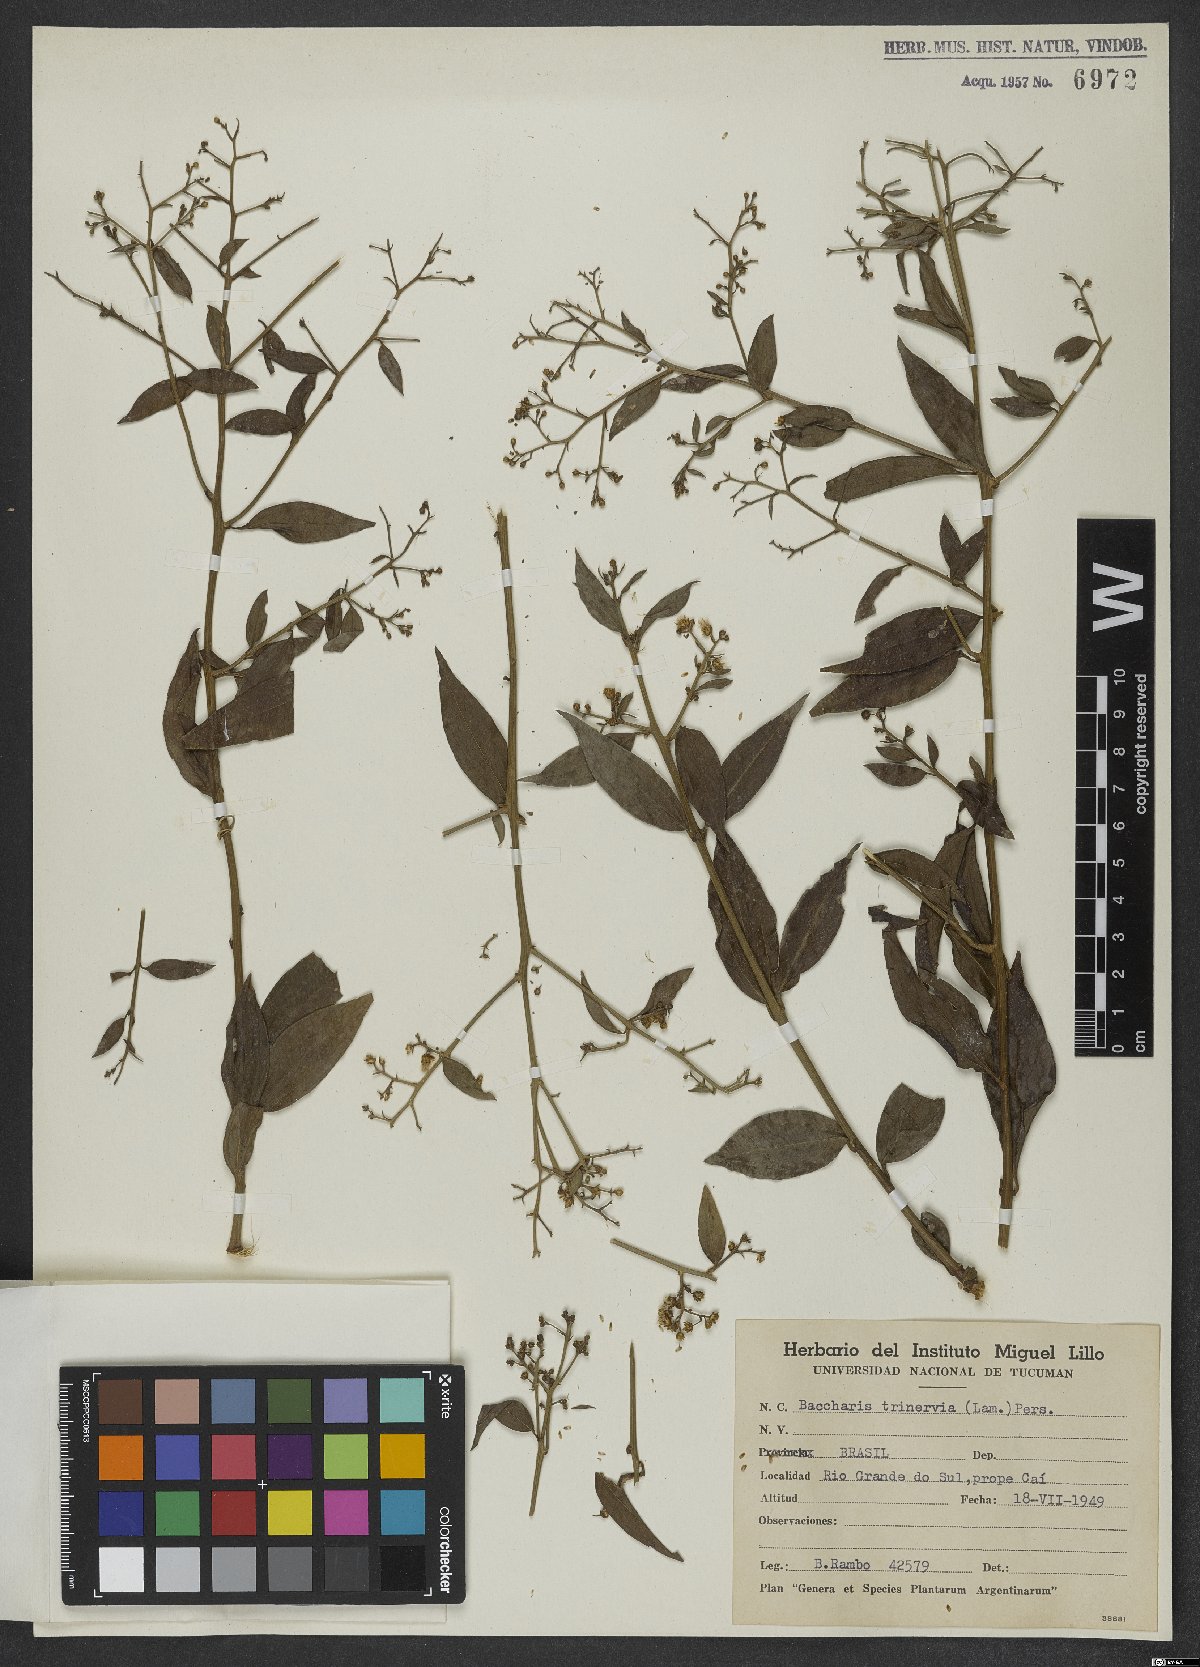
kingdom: Plantae
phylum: Tracheophyta
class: Magnoliopsida
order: Asterales
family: Asteraceae
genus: Baccharis
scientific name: Baccharis trinervis
